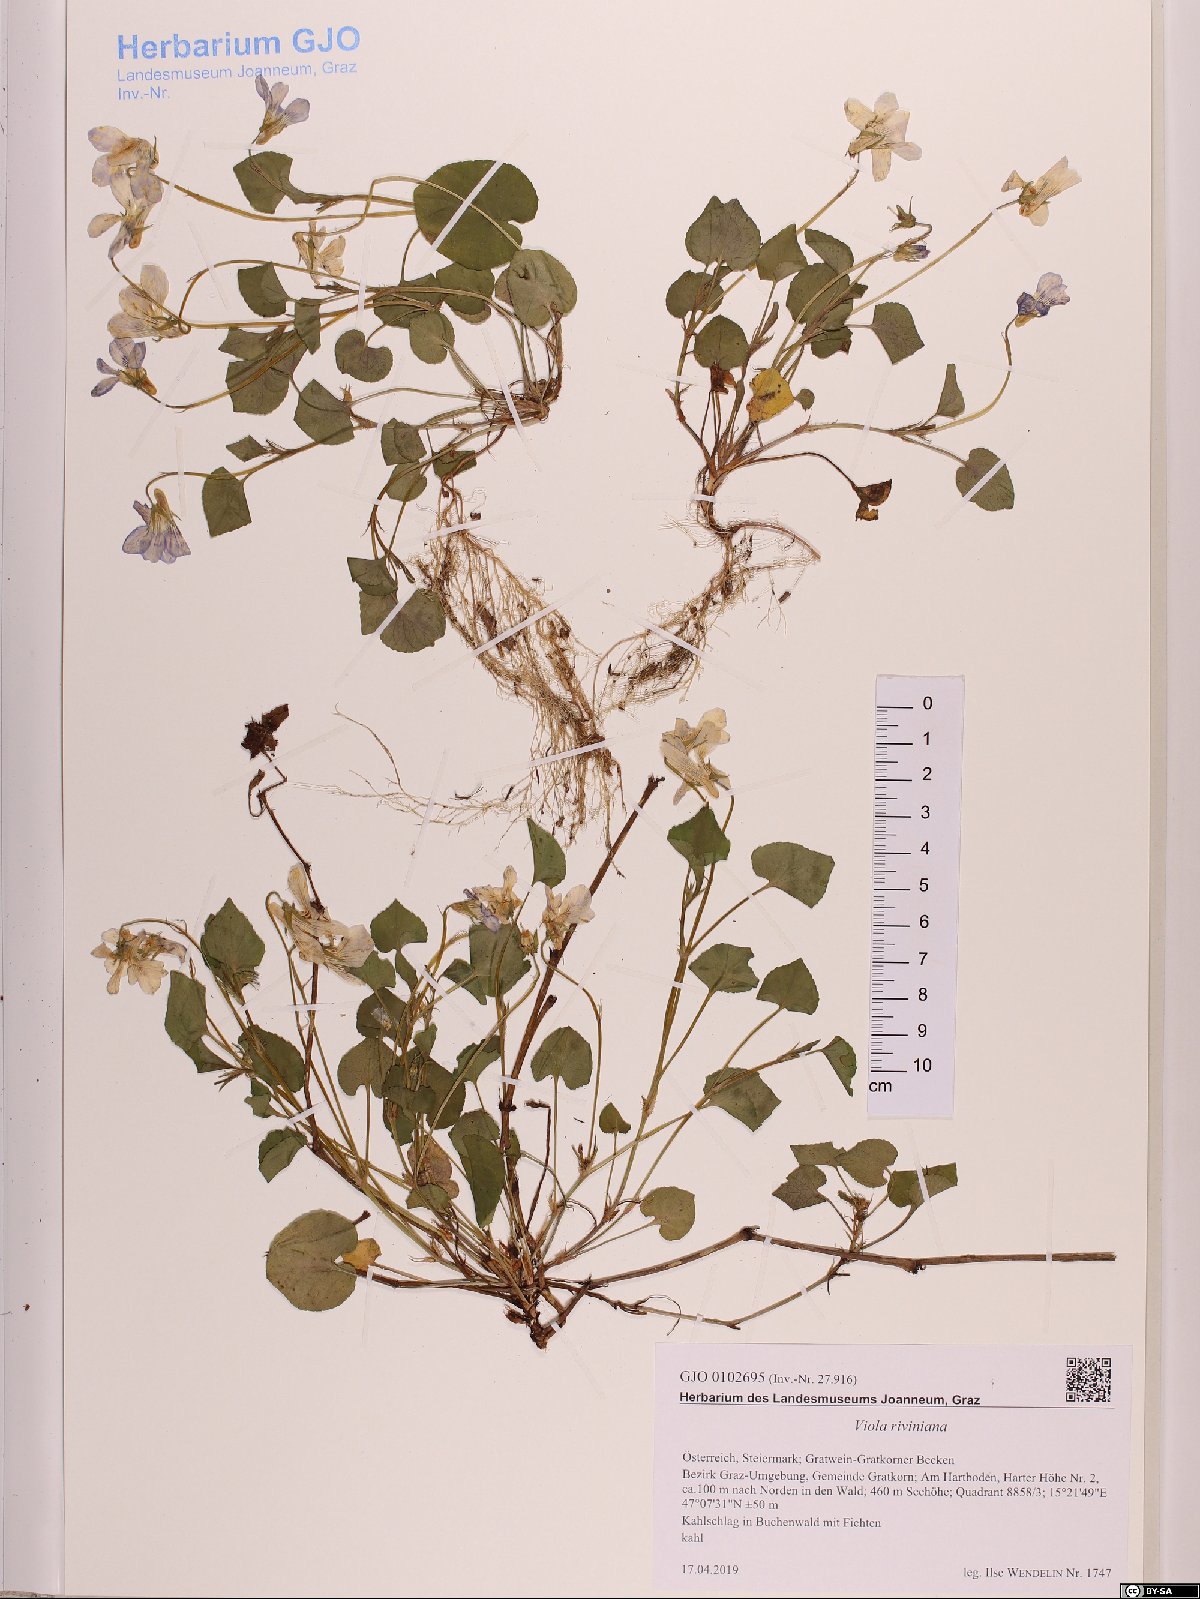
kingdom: Plantae
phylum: Tracheophyta
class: Magnoliopsida
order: Malpighiales
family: Violaceae
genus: Viola
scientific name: Viola riviniana
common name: Common dog-violet
